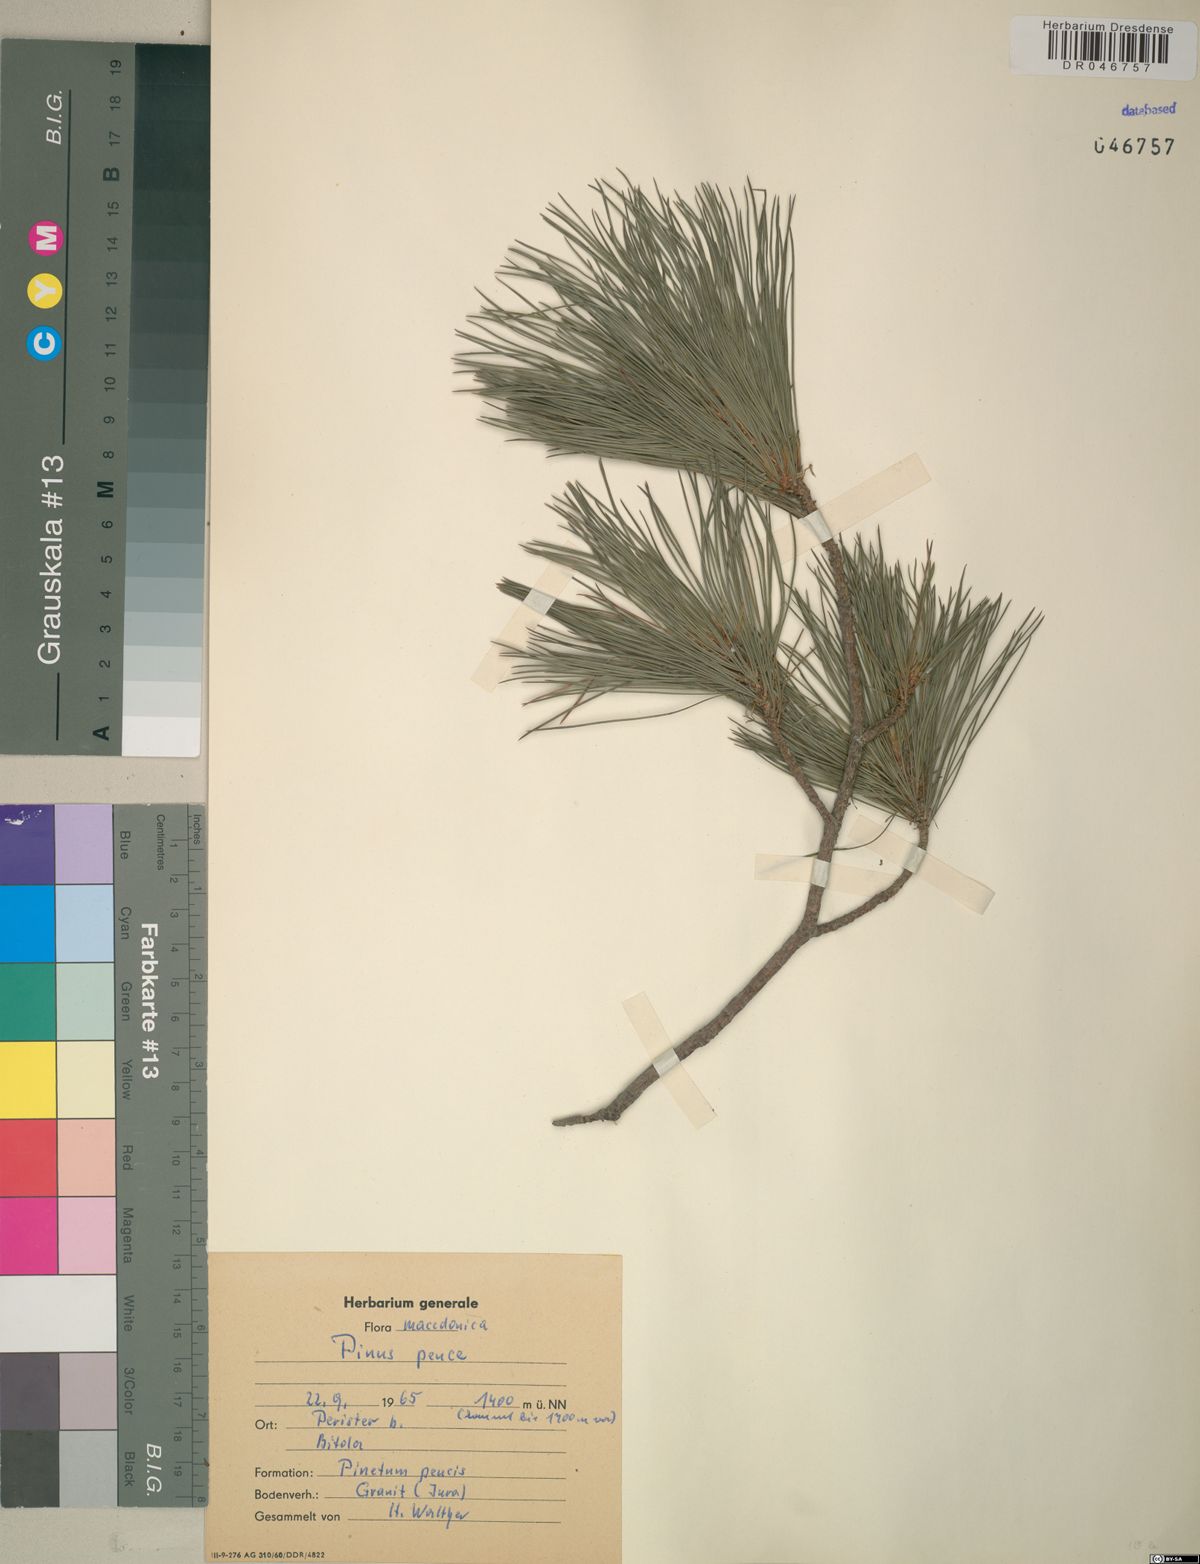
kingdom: Plantae
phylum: Tracheophyta
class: Pinopsida
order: Pinales
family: Pinaceae
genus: Pinus
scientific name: Pinus peuce
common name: Macedonian pine
